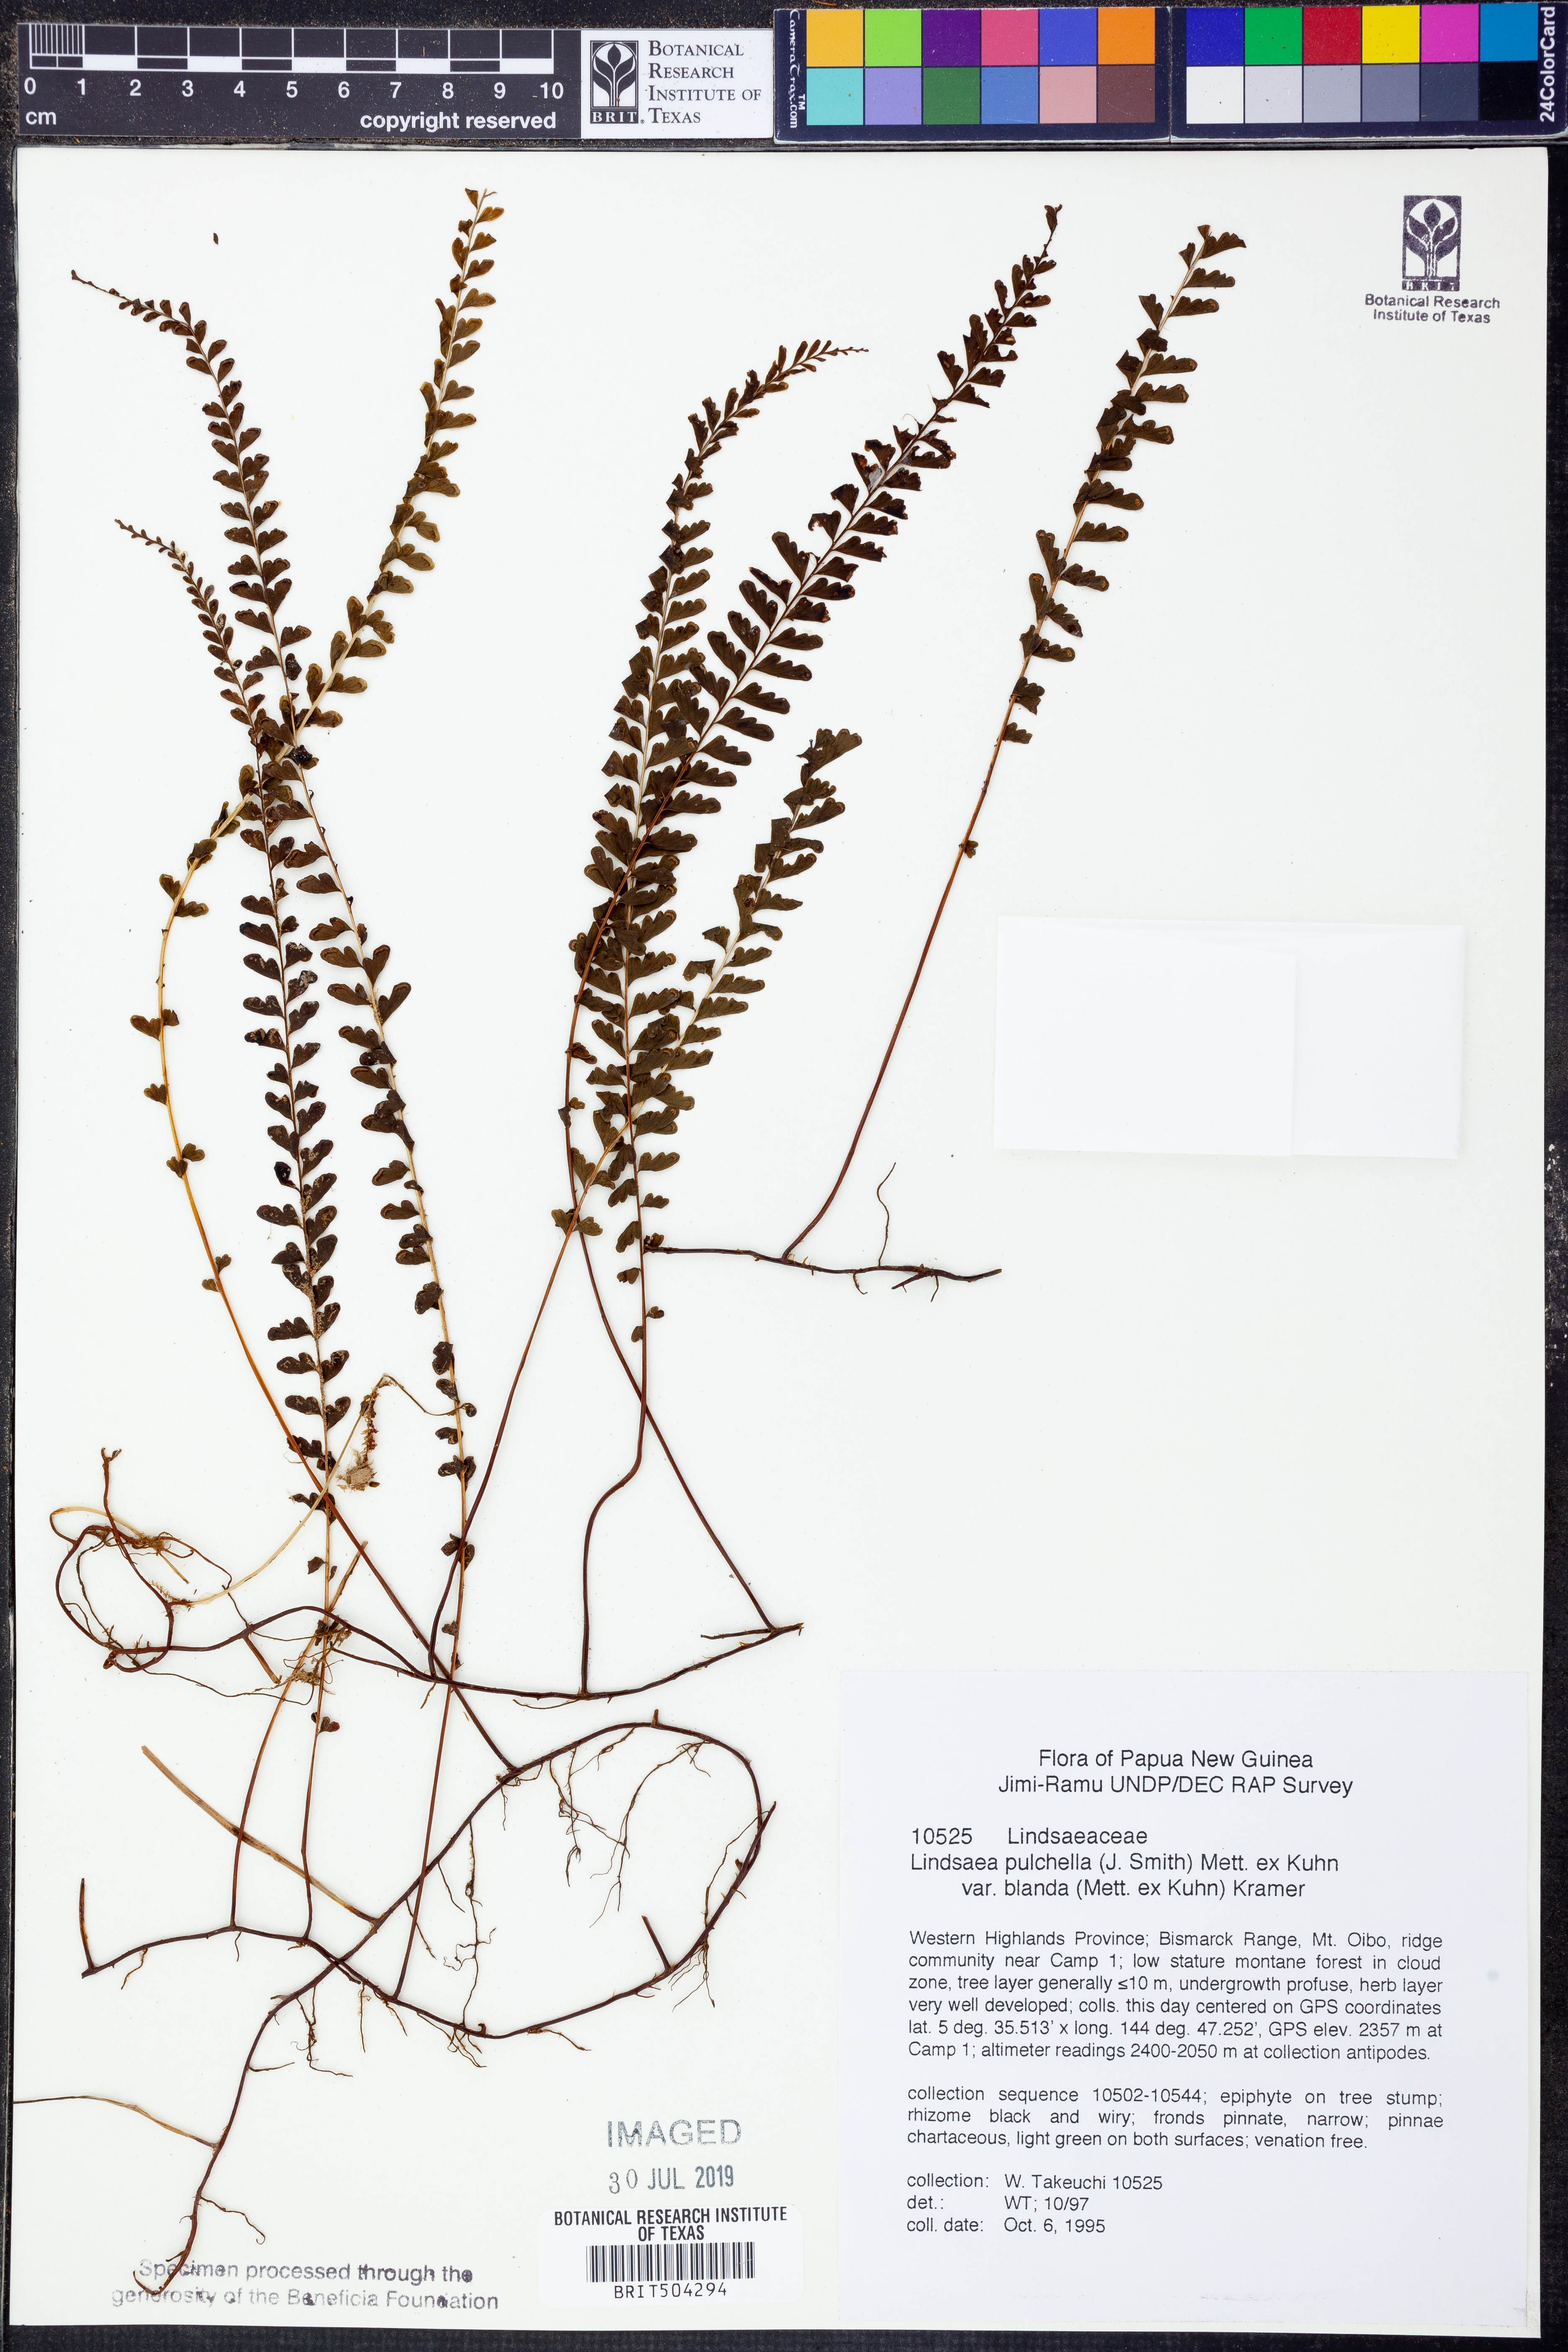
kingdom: Plantae
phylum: Tracheophyta
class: Polypodiopsida
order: Polypodiales
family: Lindsaeaceae
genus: Lindsaea
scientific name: Lindsaea blanda
